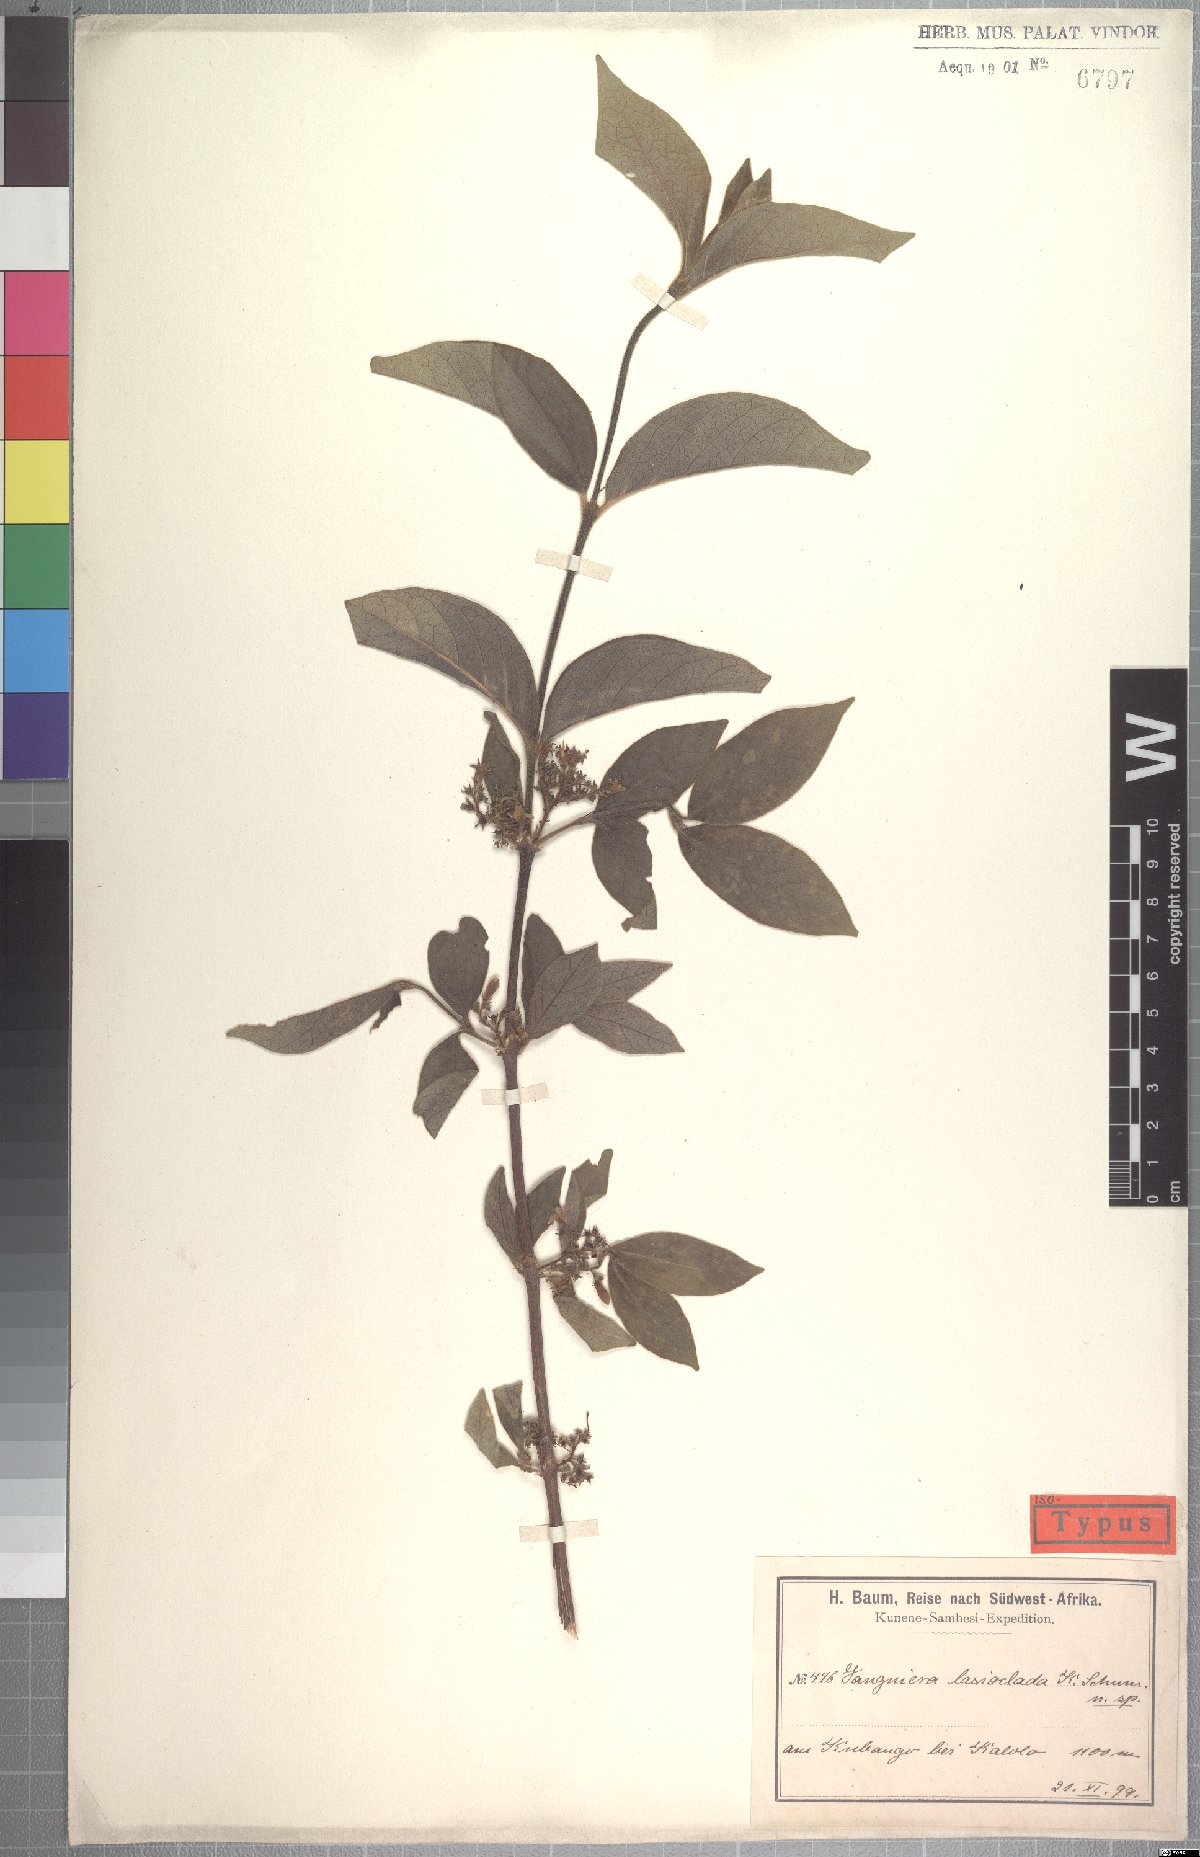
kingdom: Plantae
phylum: Tracheophyta
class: Magnoliopsida
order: Gentianales
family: Rubiaceae
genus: Vangueria
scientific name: Vangueria proschii
